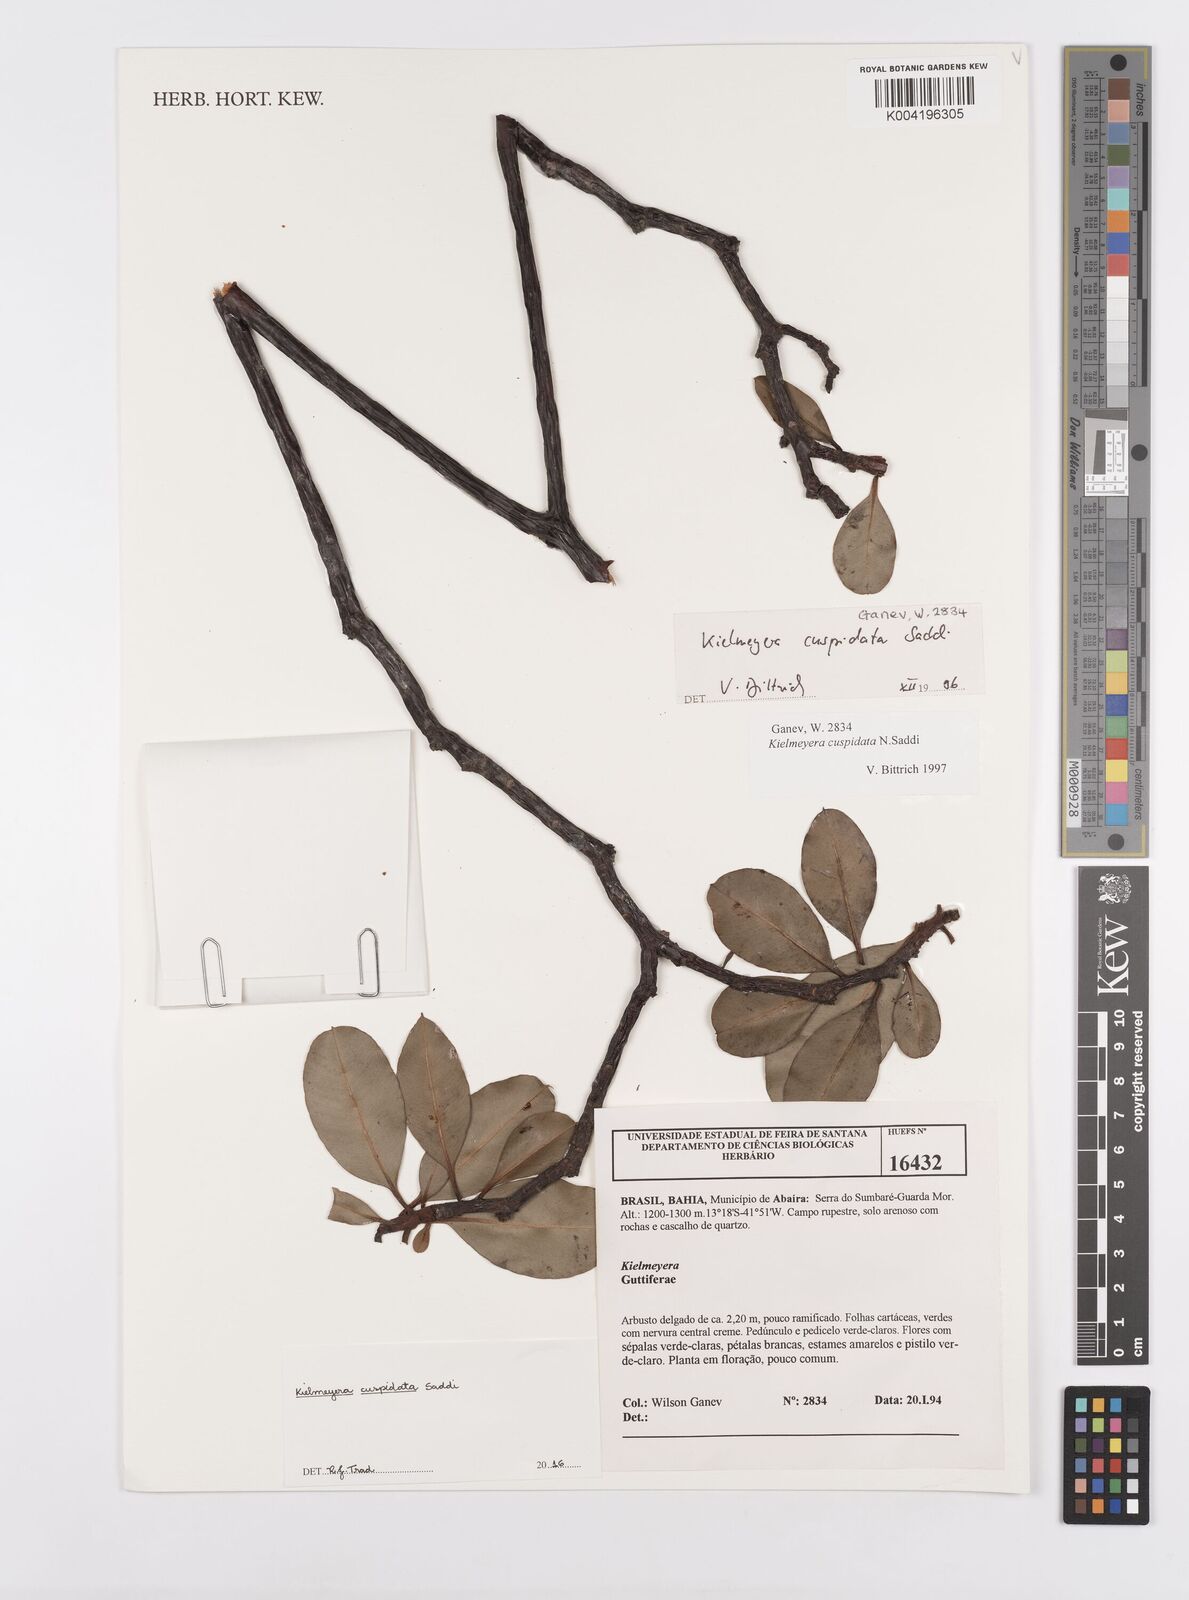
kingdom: Plantae
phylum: Tracheophyta
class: Magnoliopsida
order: Malpighiales
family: Calophyllaceae
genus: Kielmeyera
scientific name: Kielmeyera cuspidata
